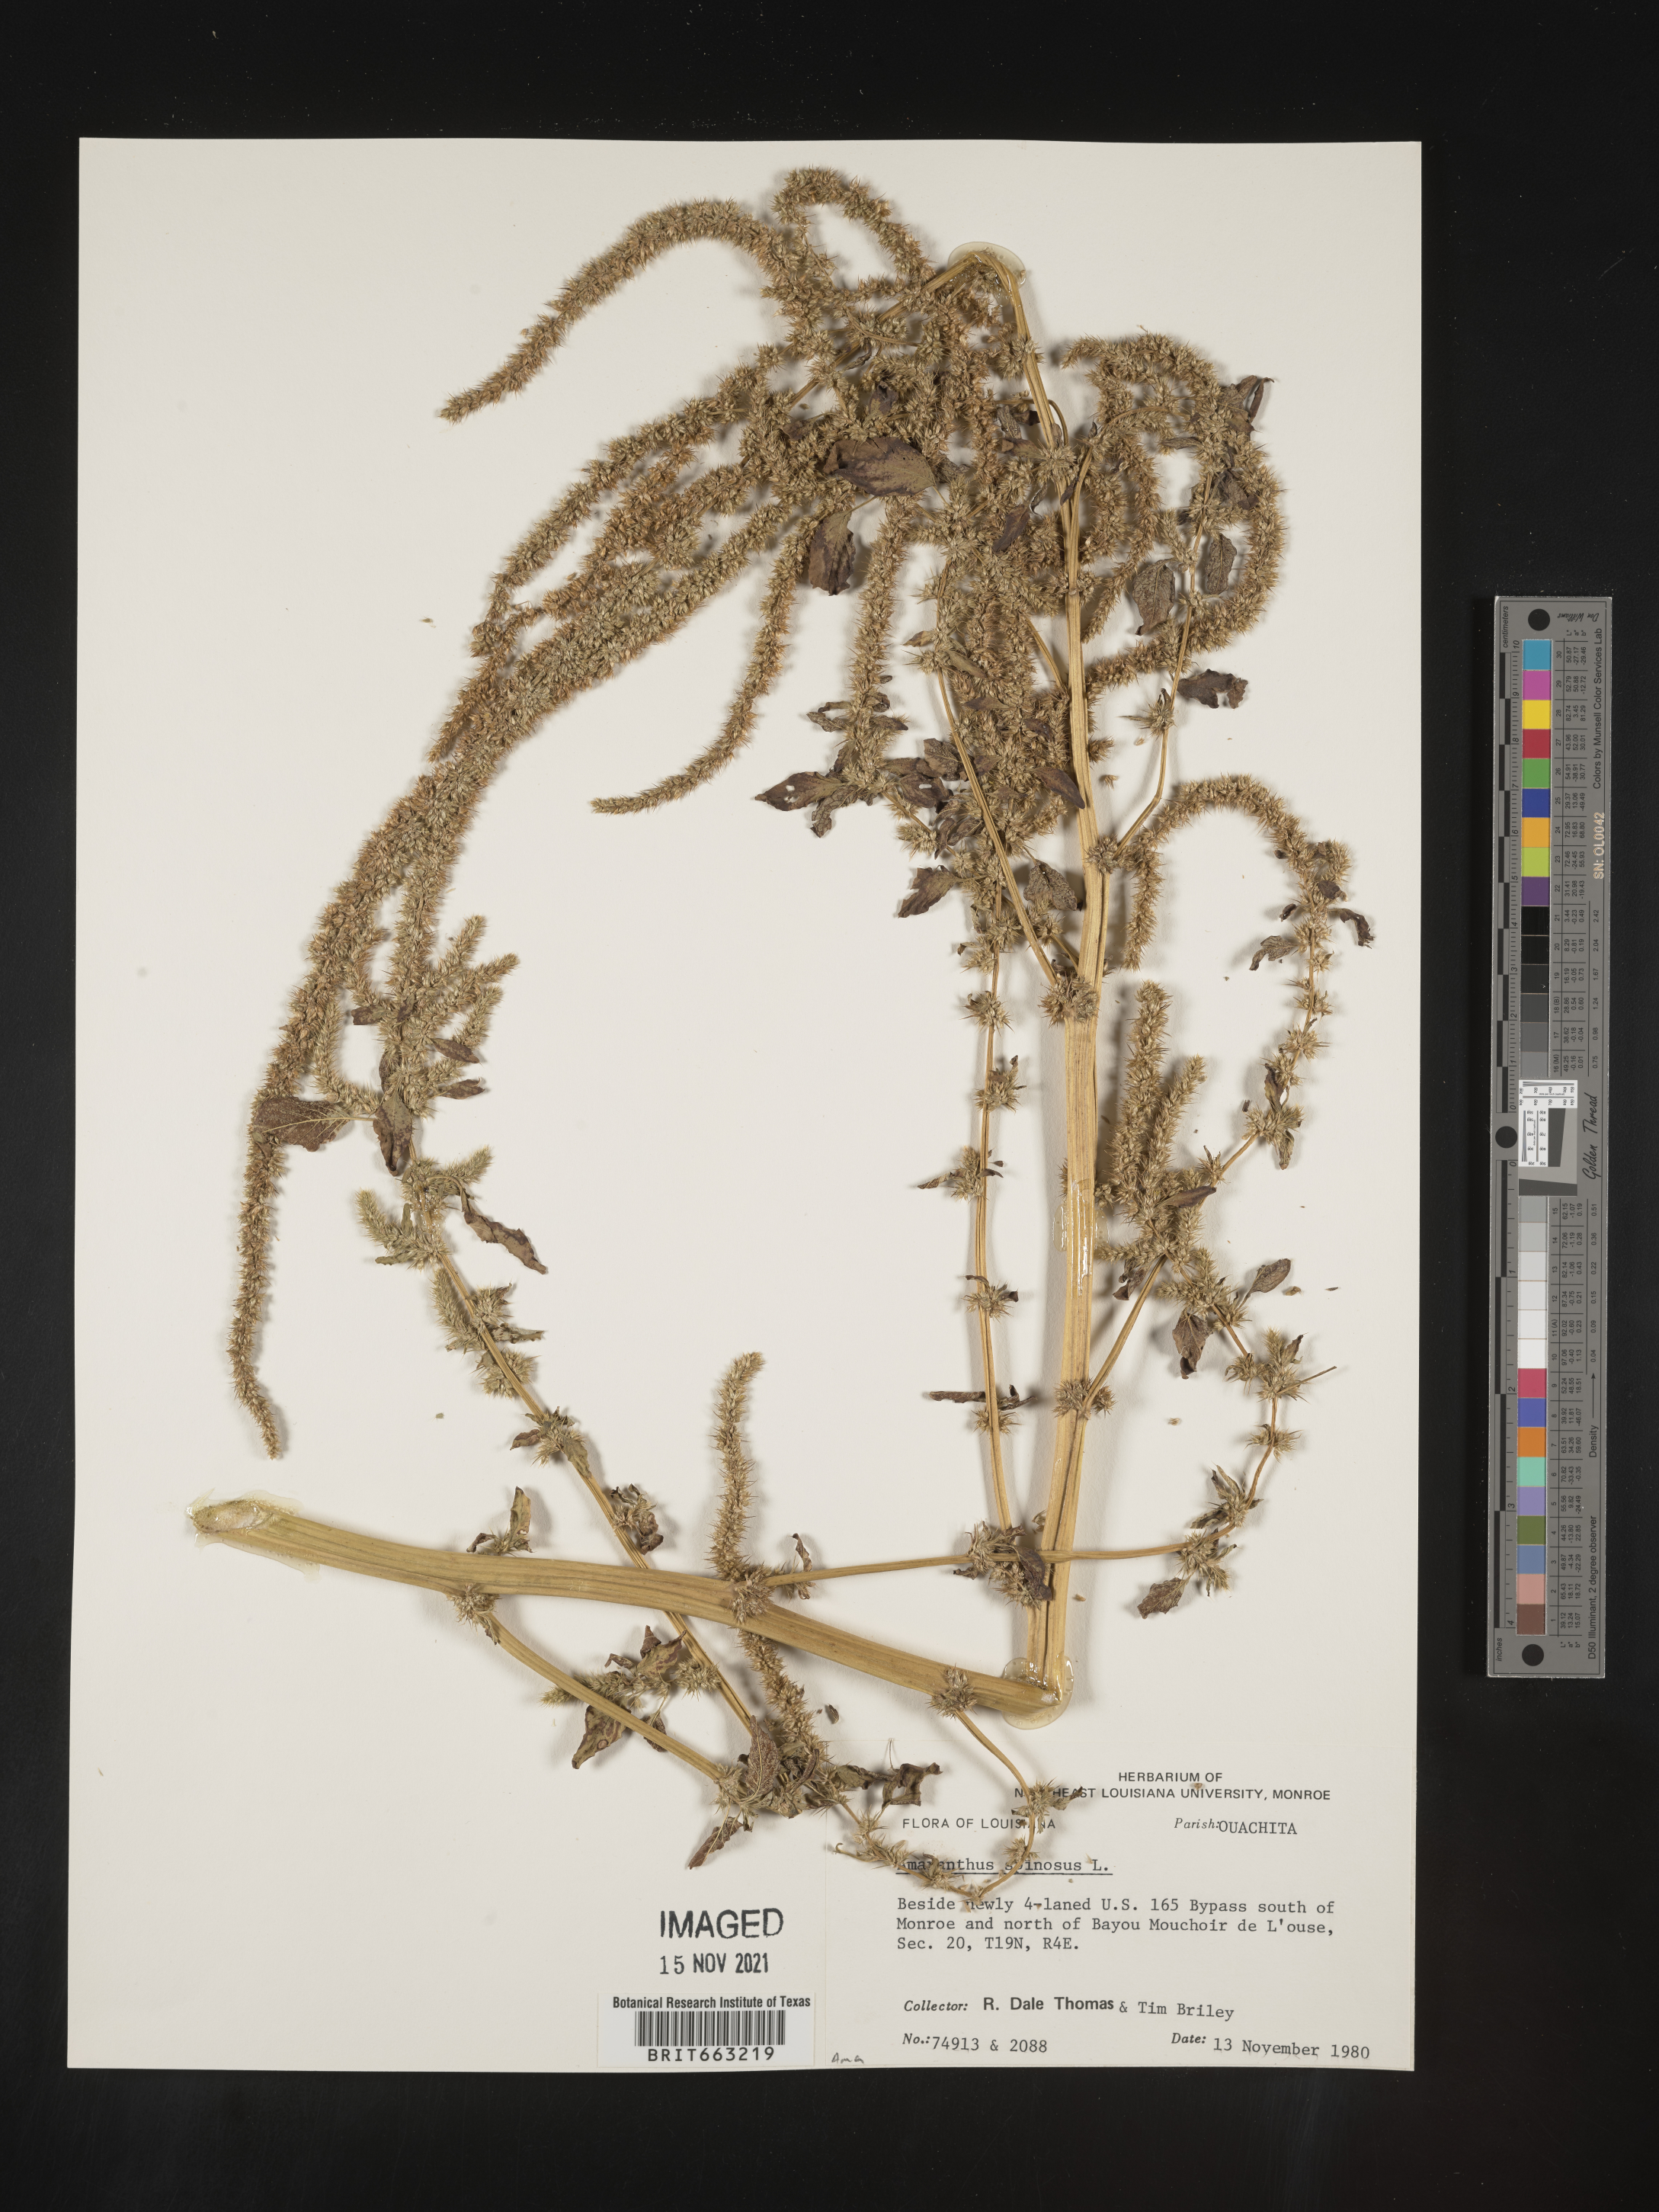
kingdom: Plantae
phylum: Tracheophyta
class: Magnoliopsida
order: Caryophyllales
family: Amaranthaceae
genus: Amaranthus
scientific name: Amaranthus spinosus
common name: Spiny amaranth
